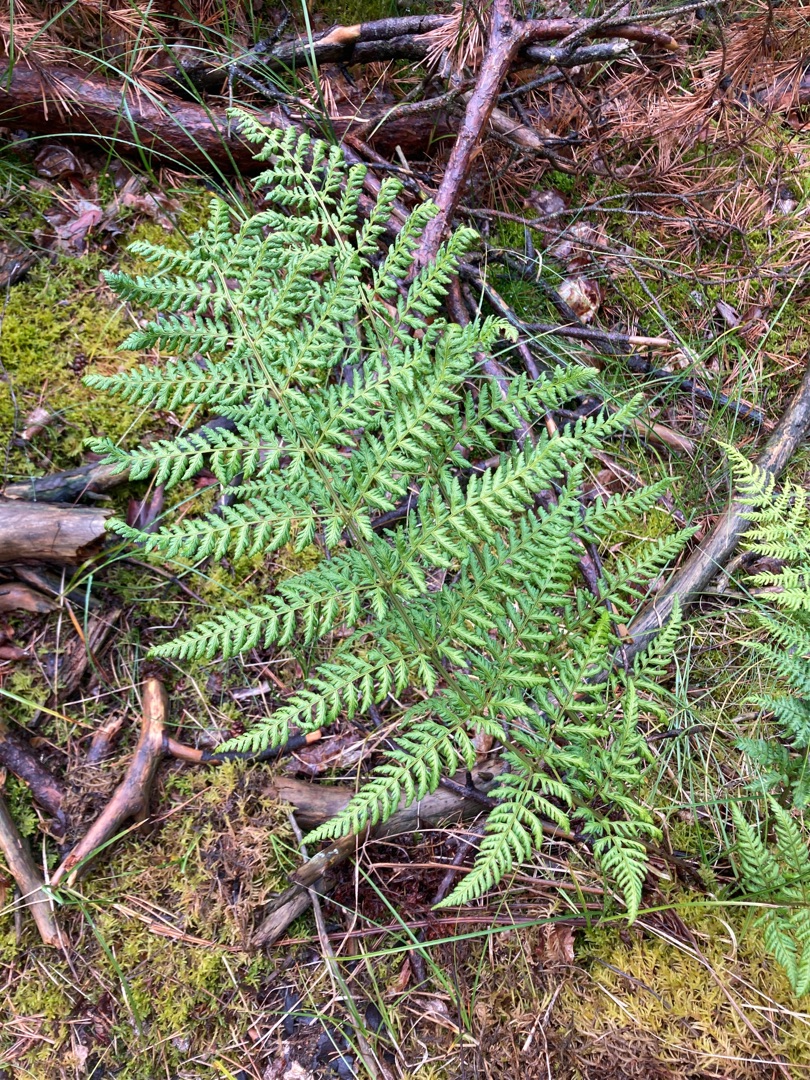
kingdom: Plantae
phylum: Tracheophyta
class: Polypodiopsida
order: Polypodiales
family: Dryopteridaceae
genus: Dryopteris
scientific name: Dryopteris dilatata
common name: Bredbladet mangeløv
